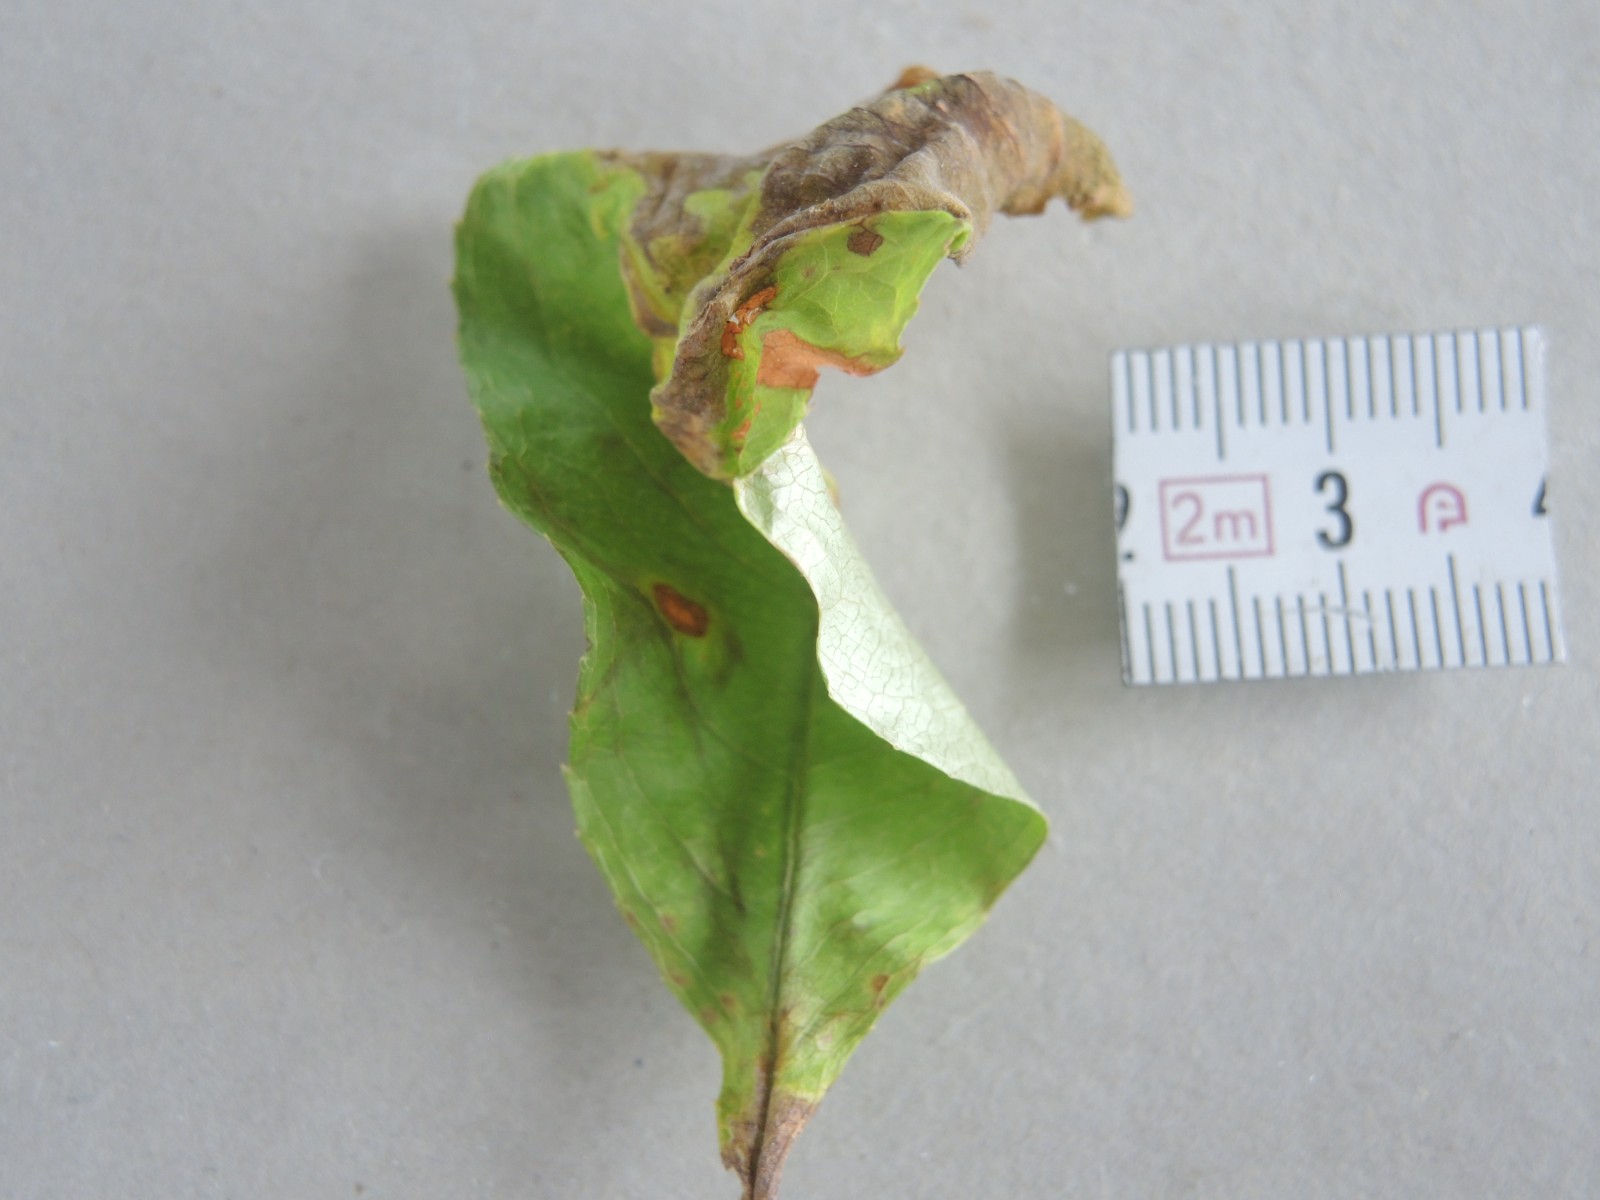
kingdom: Fungi
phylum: Ascomycota
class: Taphrinomycetes
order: Taphrinales
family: Taphrinaceae
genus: Taphrina
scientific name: Taphrina farlowii
